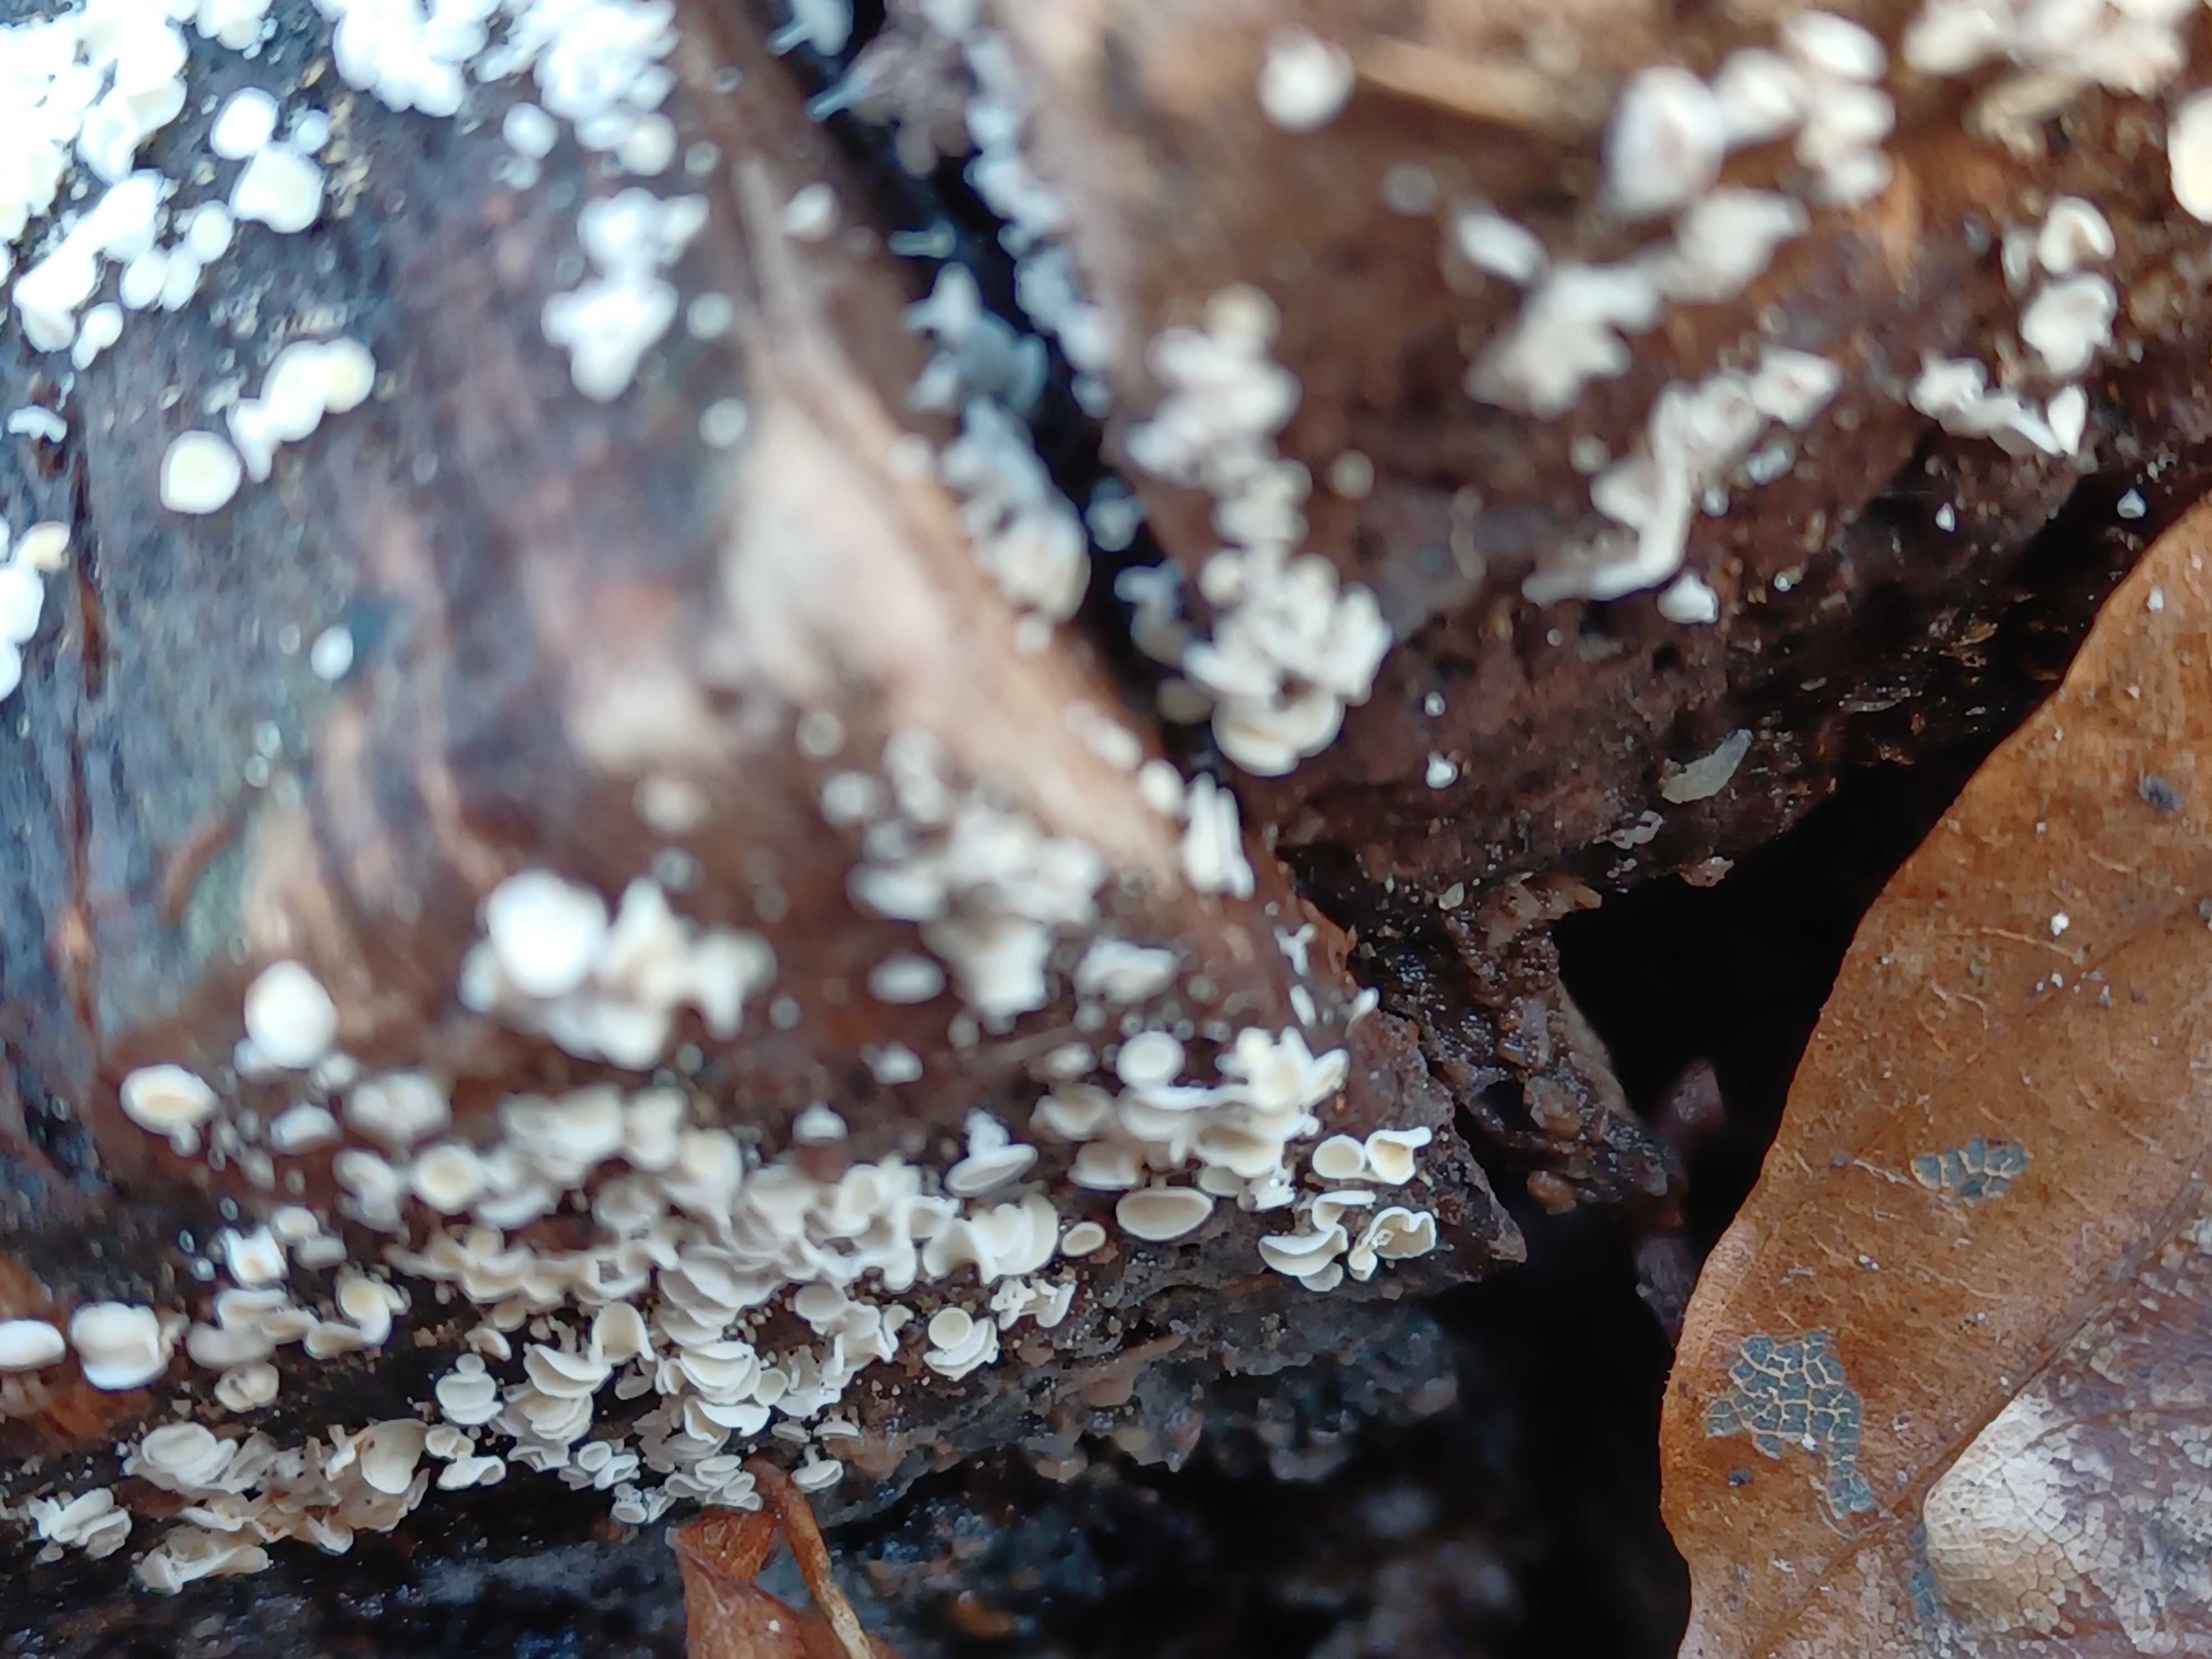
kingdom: Fungi
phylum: Ascomycota
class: Leotiomycetes
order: Helotiales
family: Lachnaceae
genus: Lachnum
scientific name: Lachnum
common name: frynseskive
